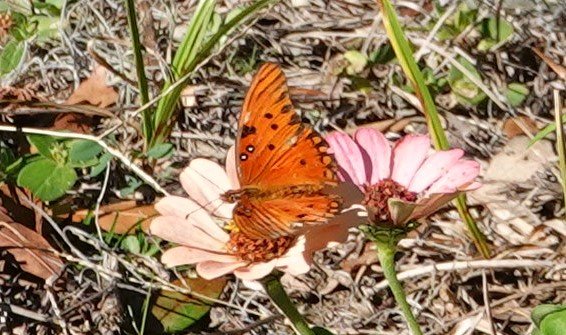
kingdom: Animalia
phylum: Arthropoda
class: Insecta
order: Lepidoptera
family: Nymphalidae
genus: Dione
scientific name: Dione vanillae
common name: Gulf Fritillary
